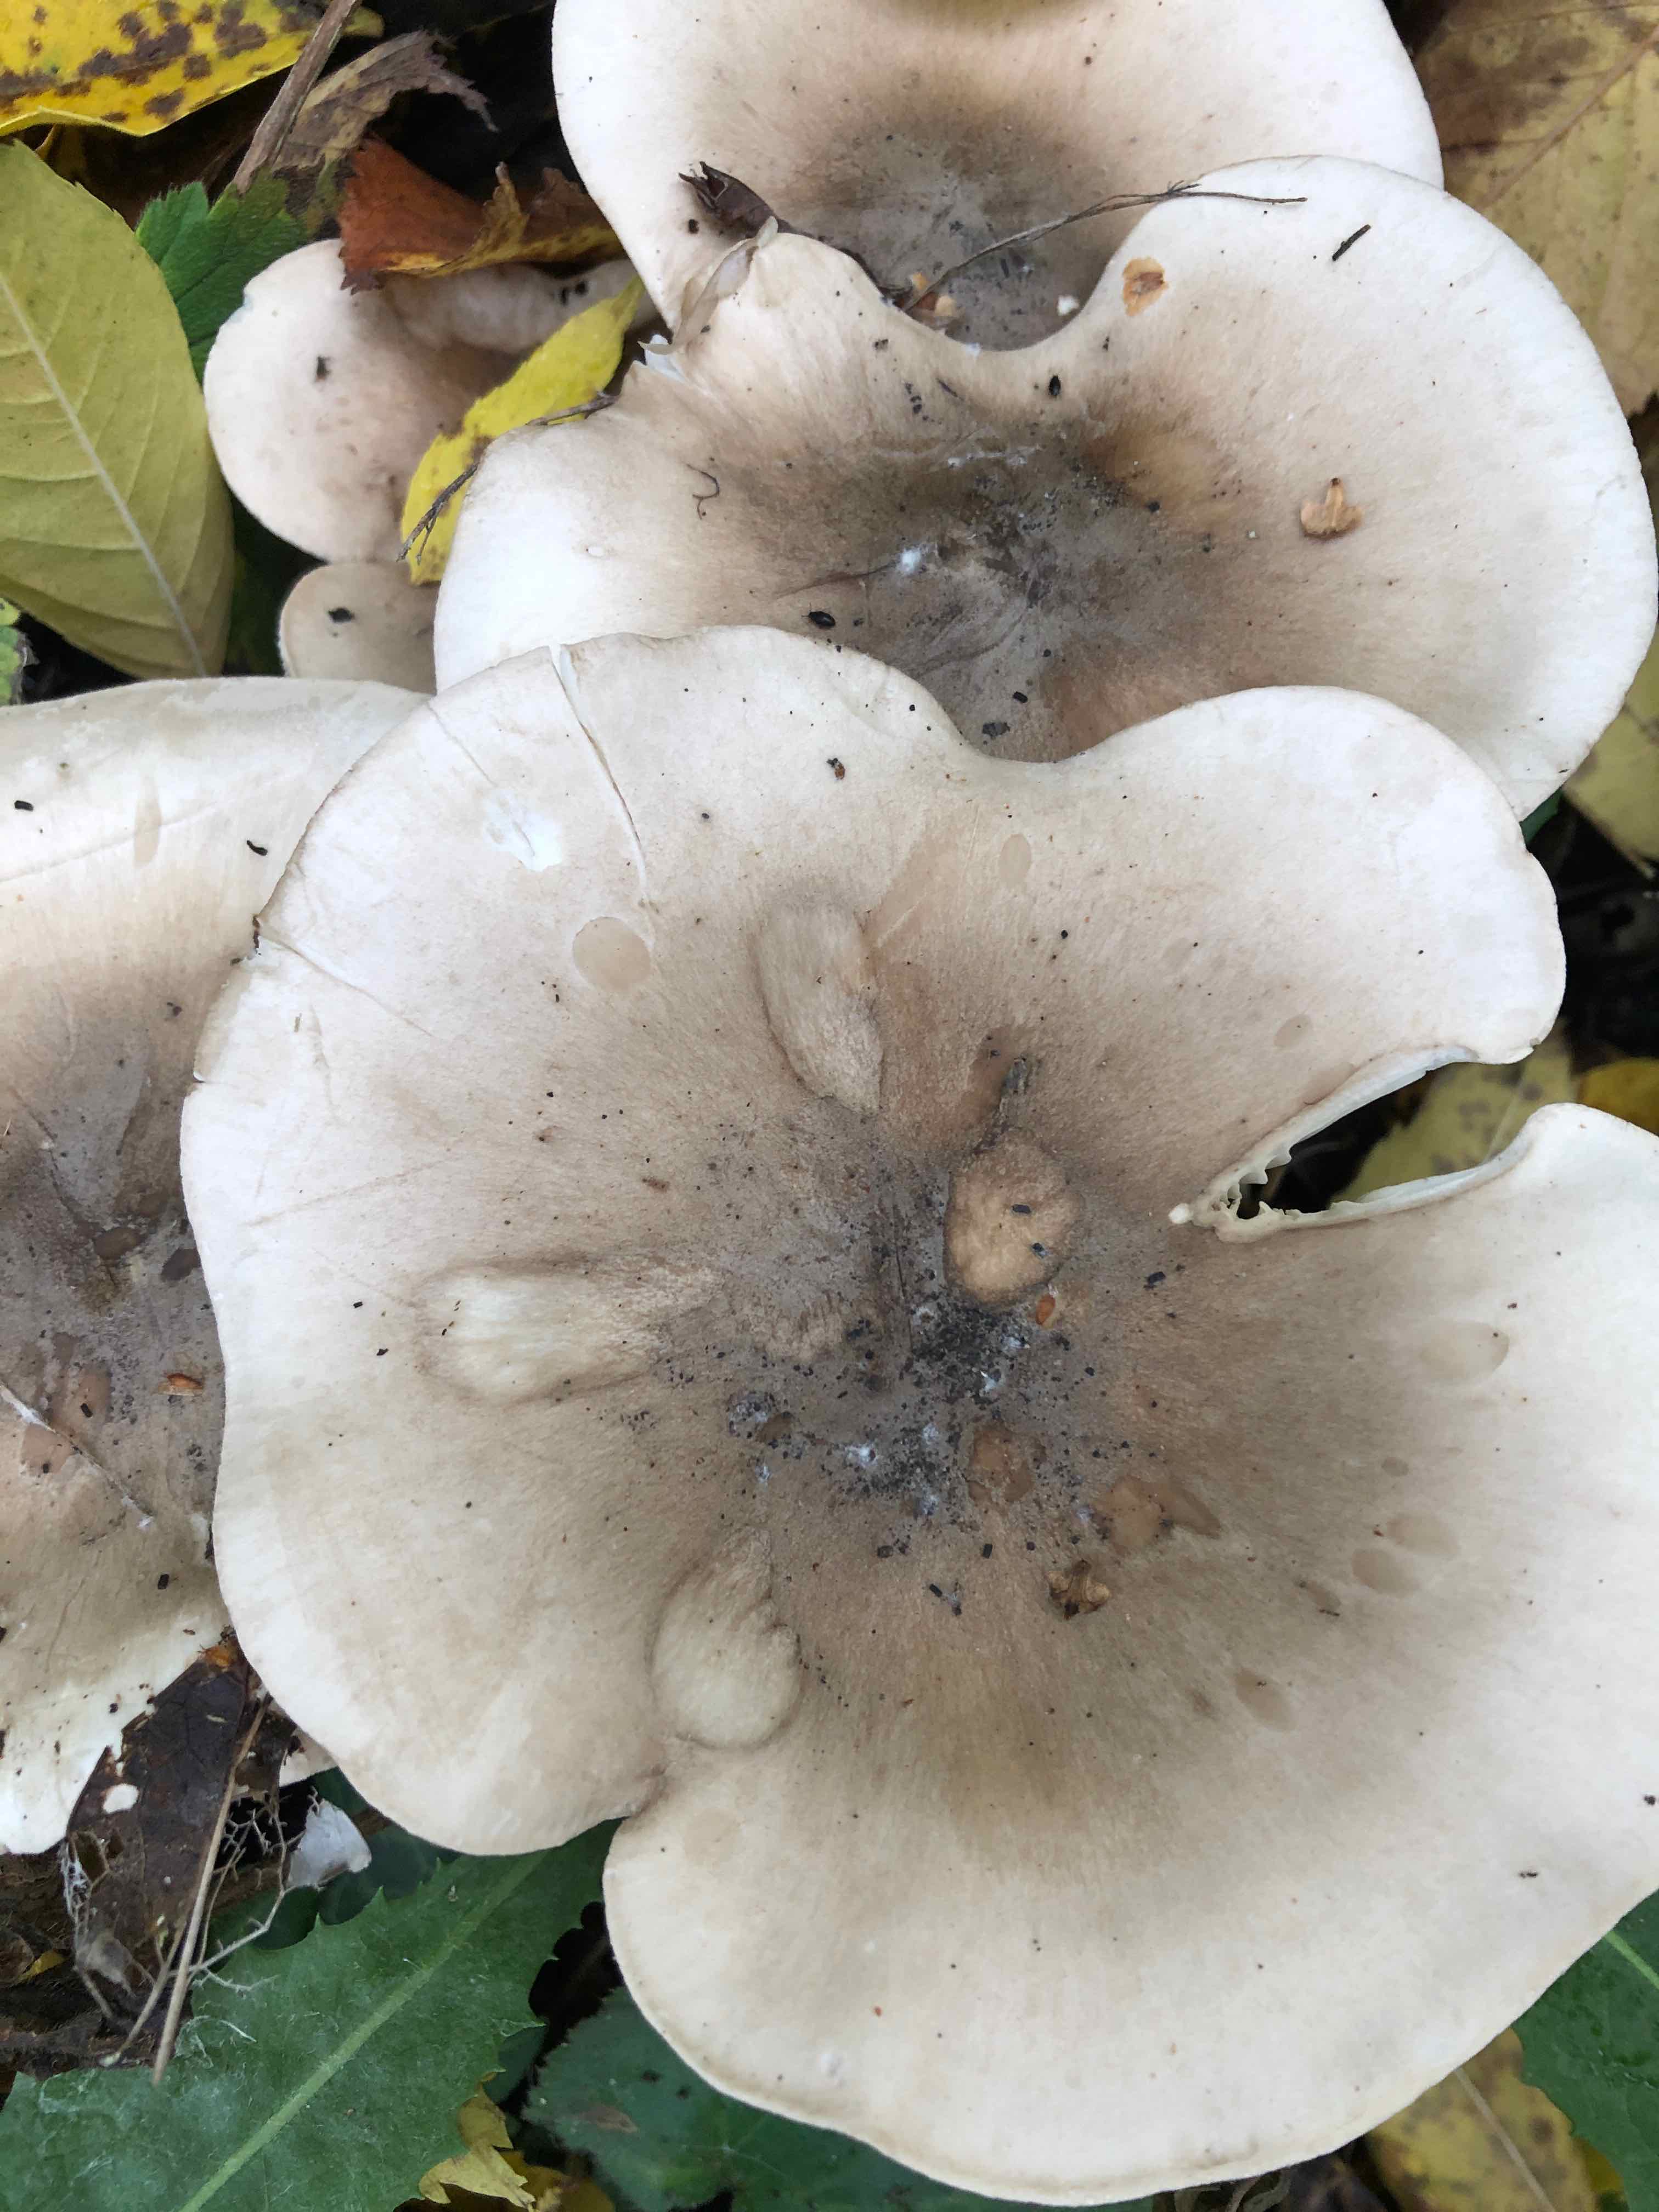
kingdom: Fungi
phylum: Basidiomycota
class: Agaricomycetes
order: Agaricales
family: Tricholomataceae
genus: Clitocybe
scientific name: Clitocybe nebularis
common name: tåge-tragthat
